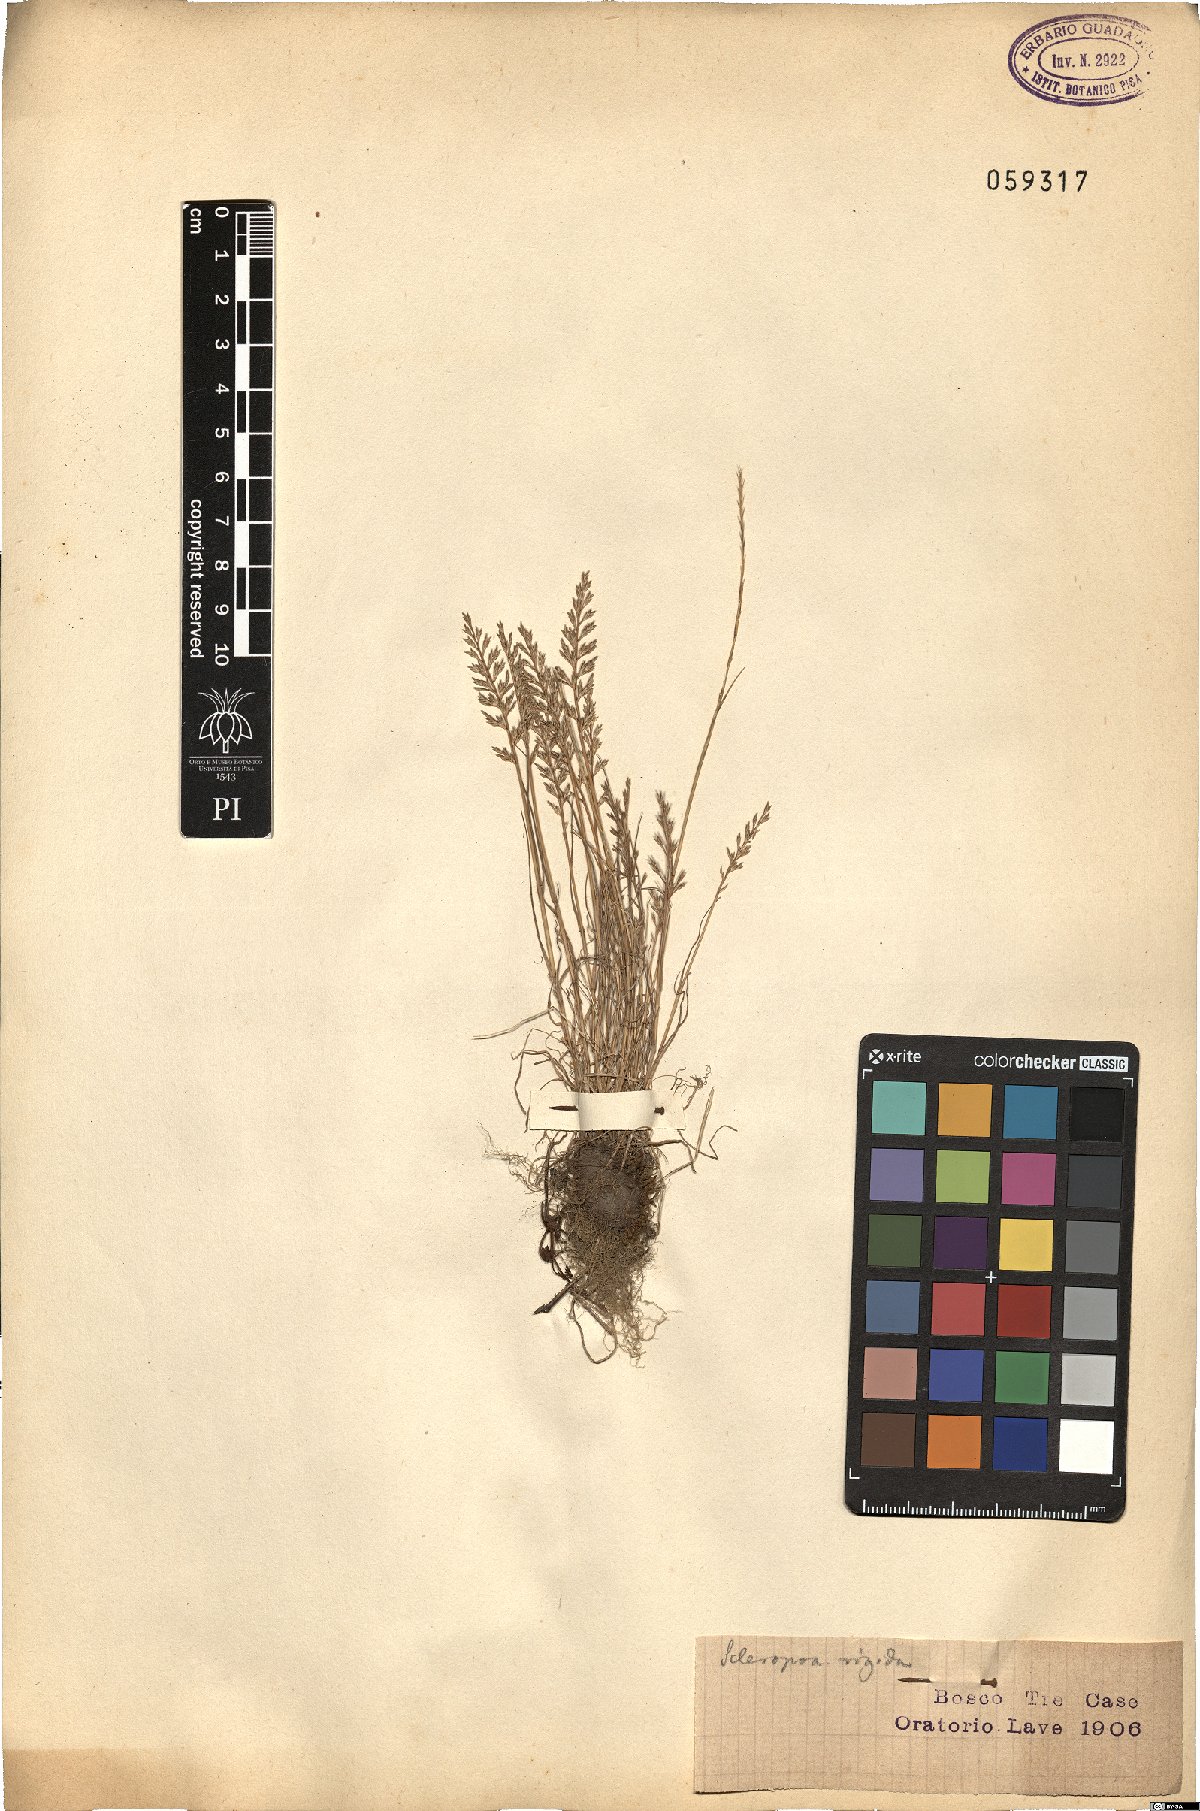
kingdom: Plantae
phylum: Tracheophyta
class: Liliopsida
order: Poales
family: Poaceae
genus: Catapodium
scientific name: Catapodium rigidum
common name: Fern-grass
